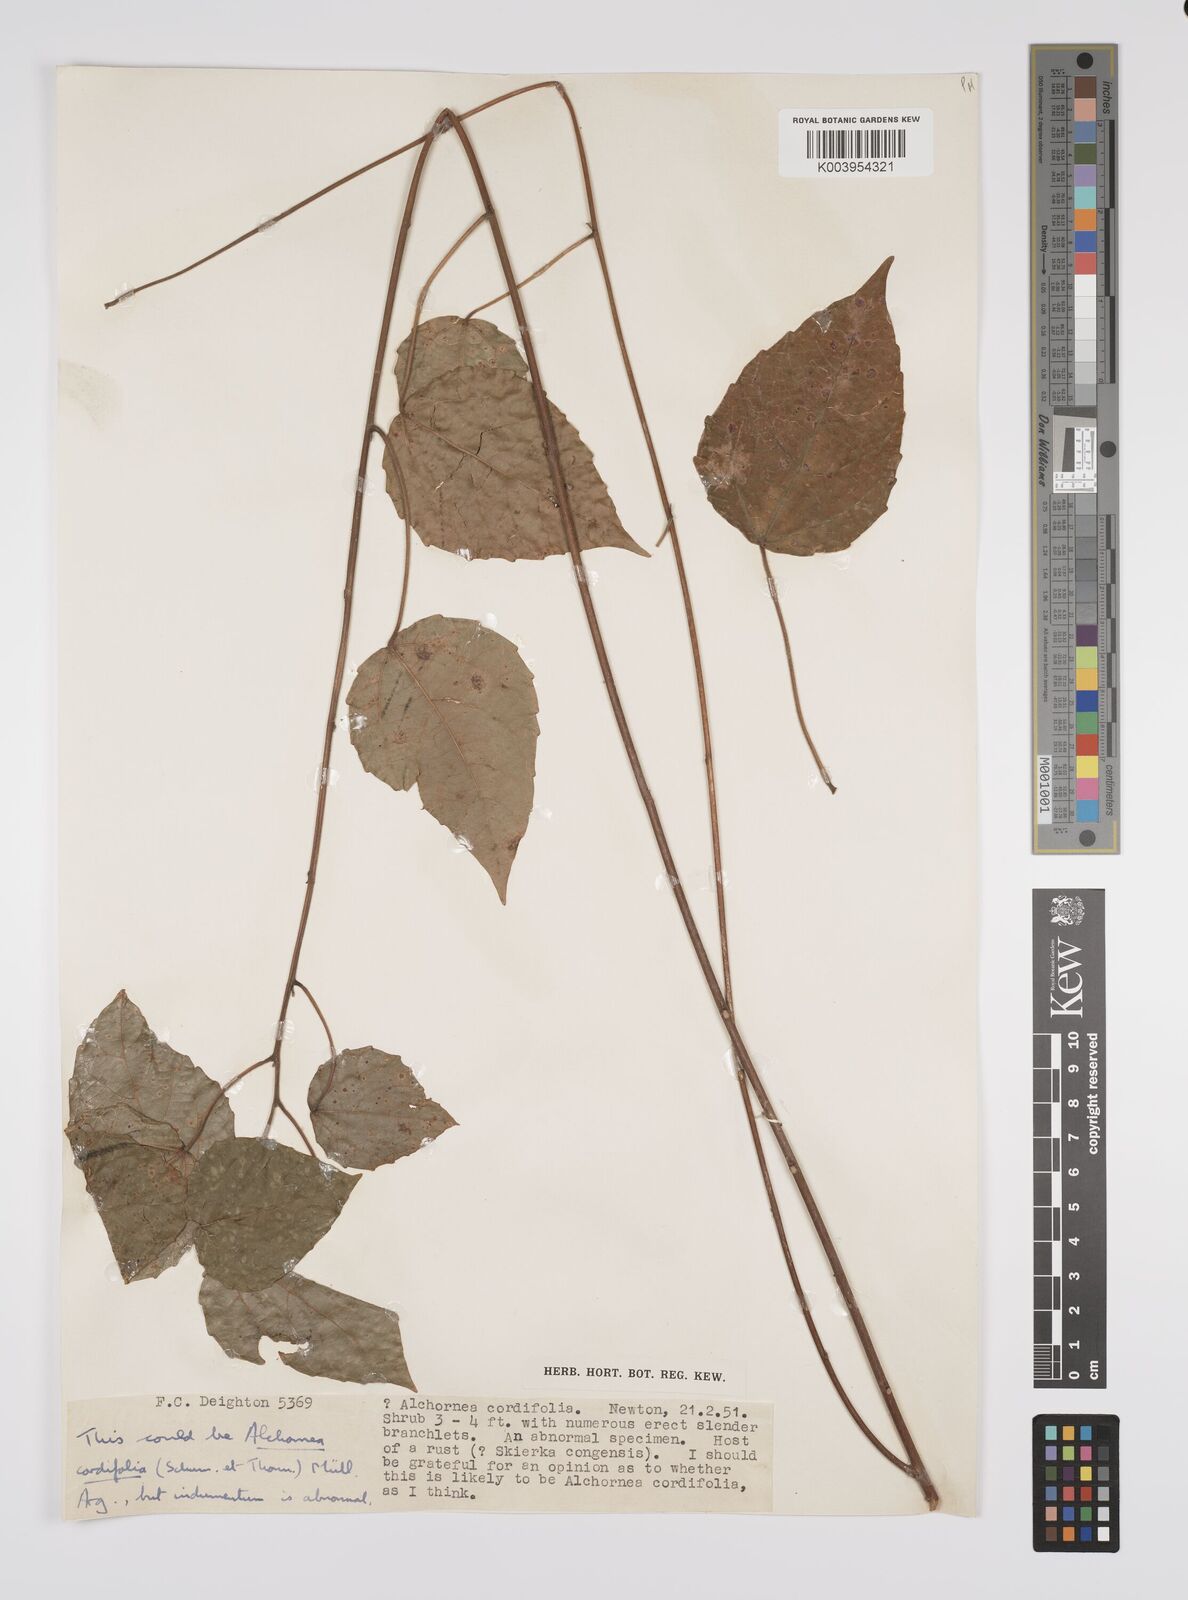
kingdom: Plantae
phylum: Tracheophyta
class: Magnoliopsida
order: Malpighiales
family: Euphorbiaceae
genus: Alchornea
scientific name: Alchornea cordifolia
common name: Christmasbush
